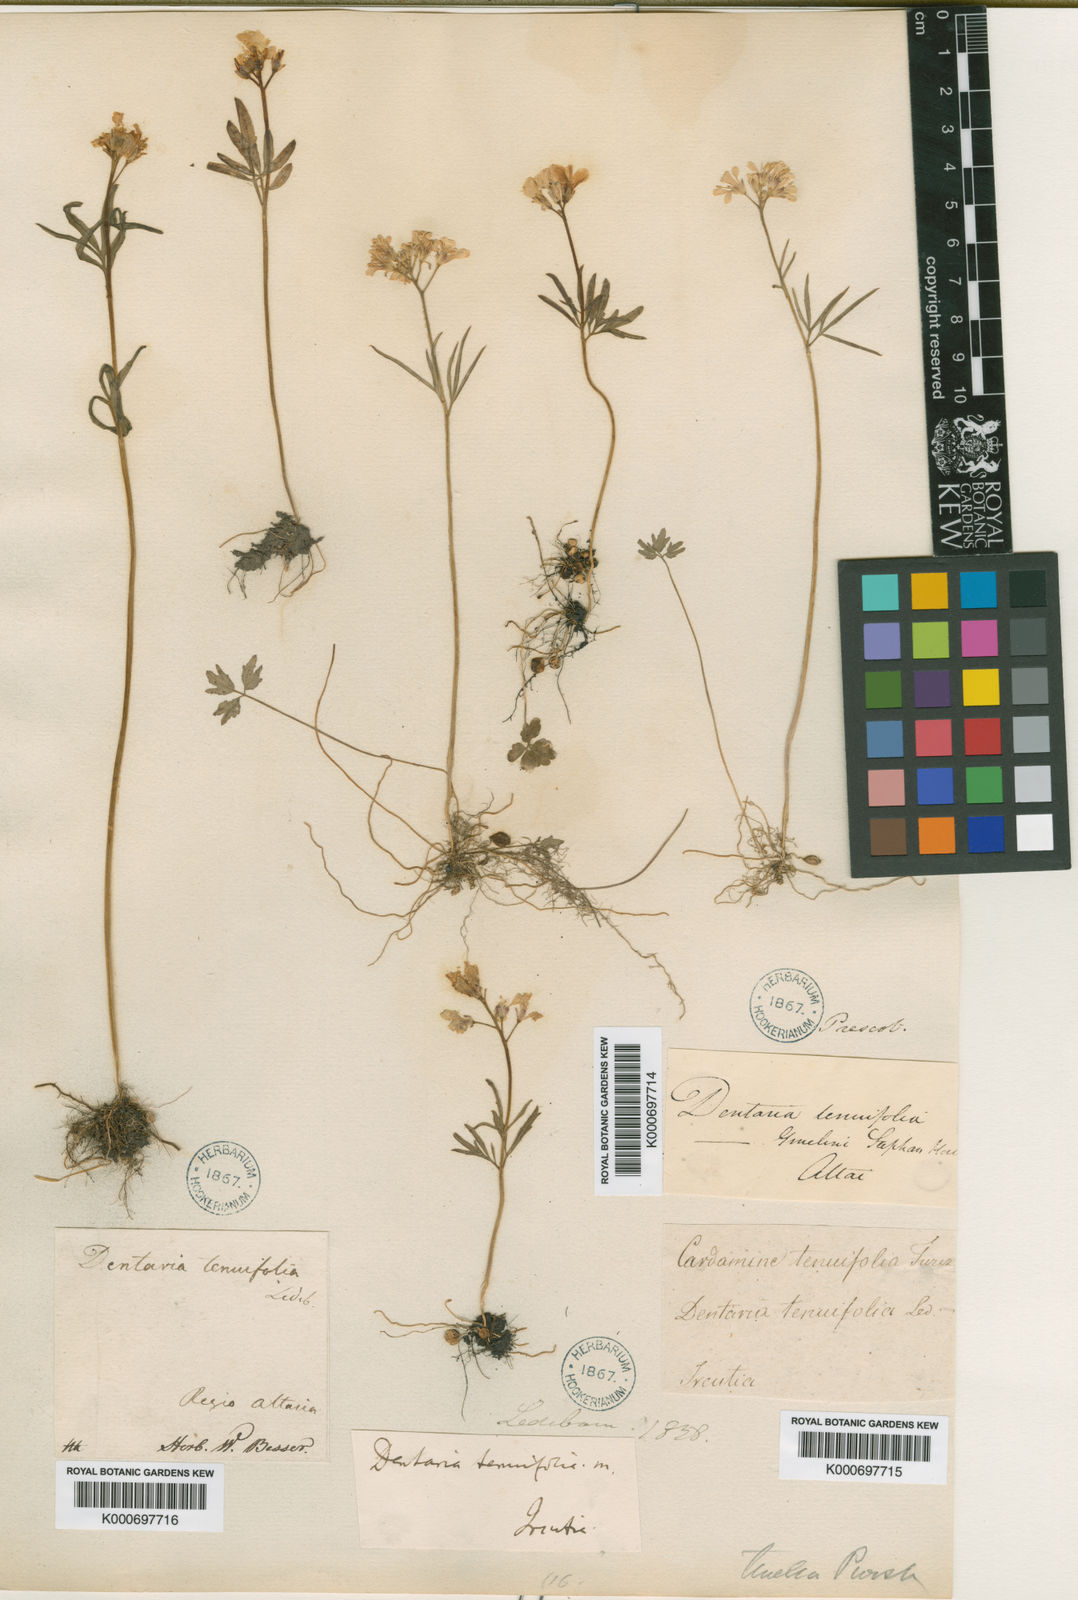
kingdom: Plantae
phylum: Tracheophyta
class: Magnoliopsida
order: Brassicales
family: Brassicaceae
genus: Cardamine
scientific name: Cardamine trifida
